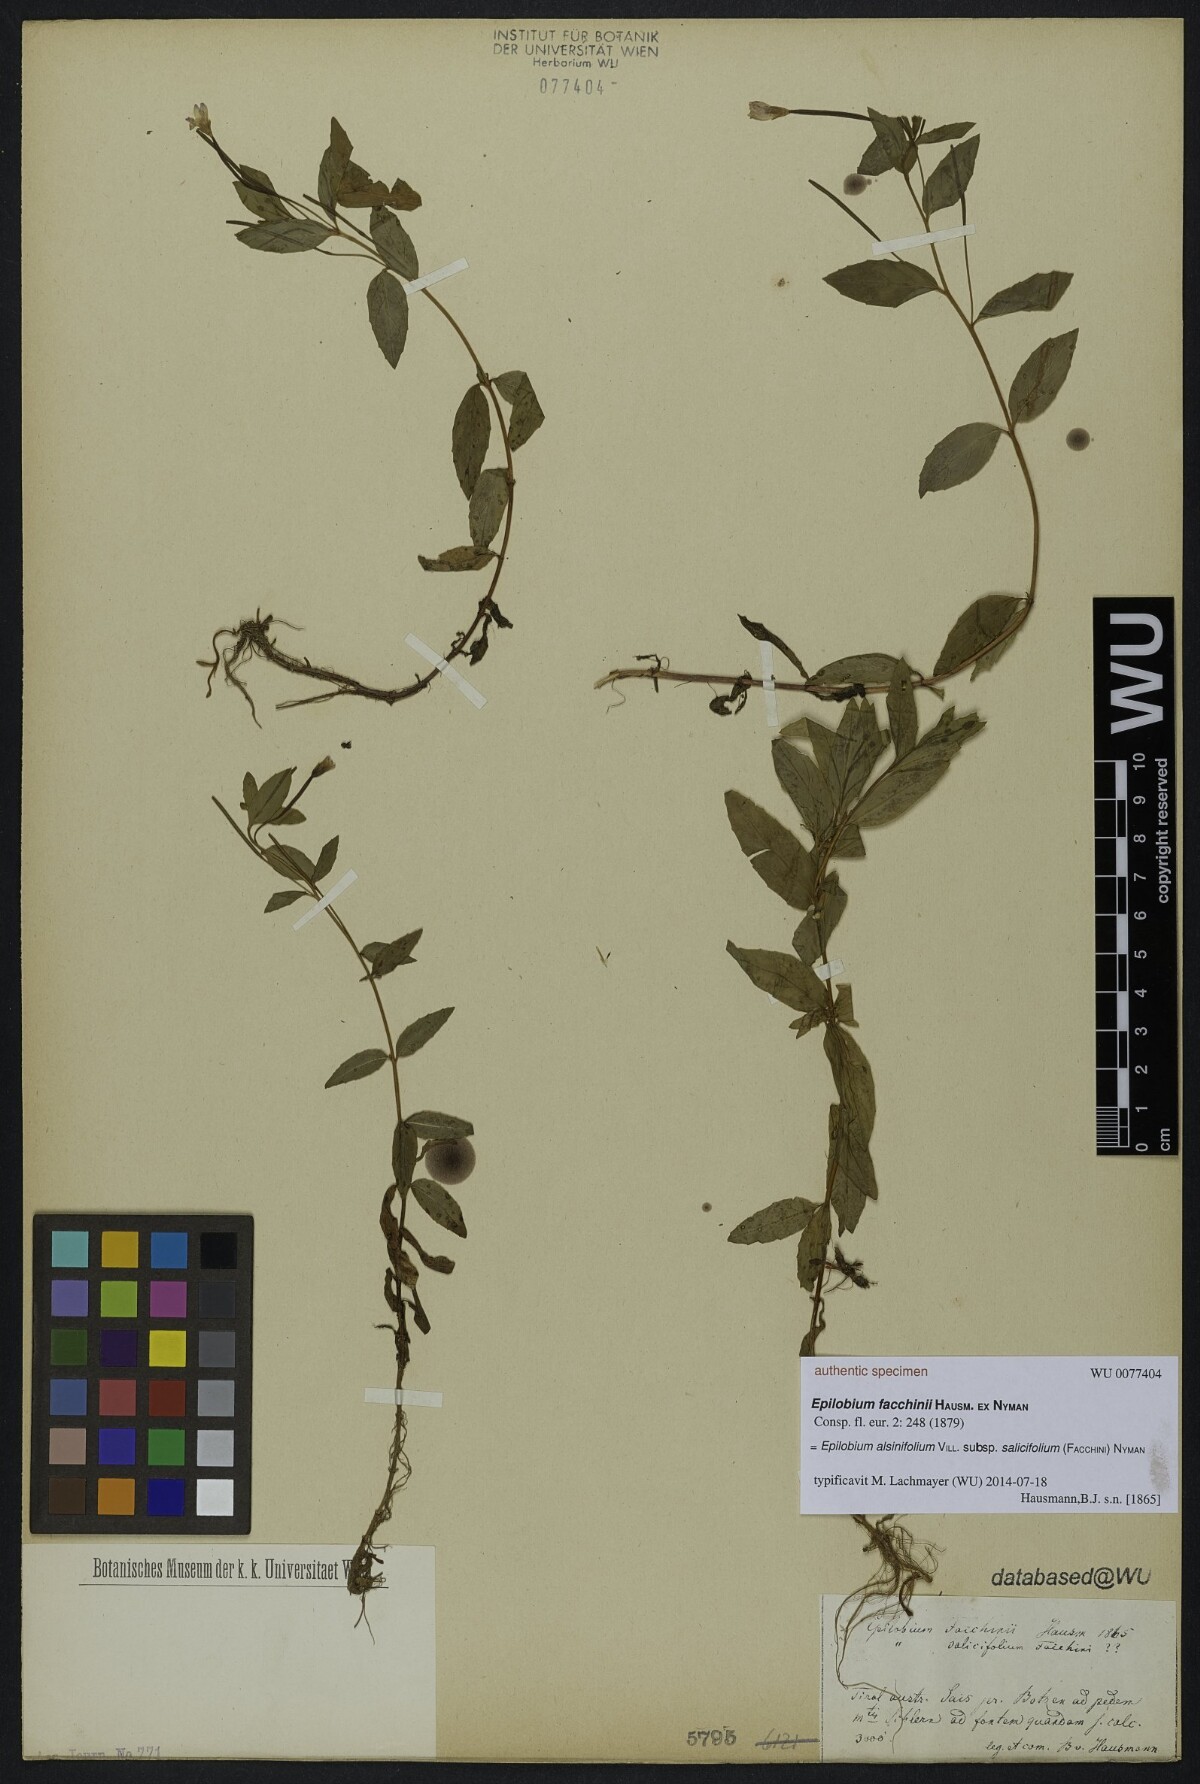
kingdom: Plantae
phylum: Tracheophyta
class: Magnoliopsida
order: Myrtales
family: Onagraceae
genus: Epilobium
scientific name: Epilobium facchini
